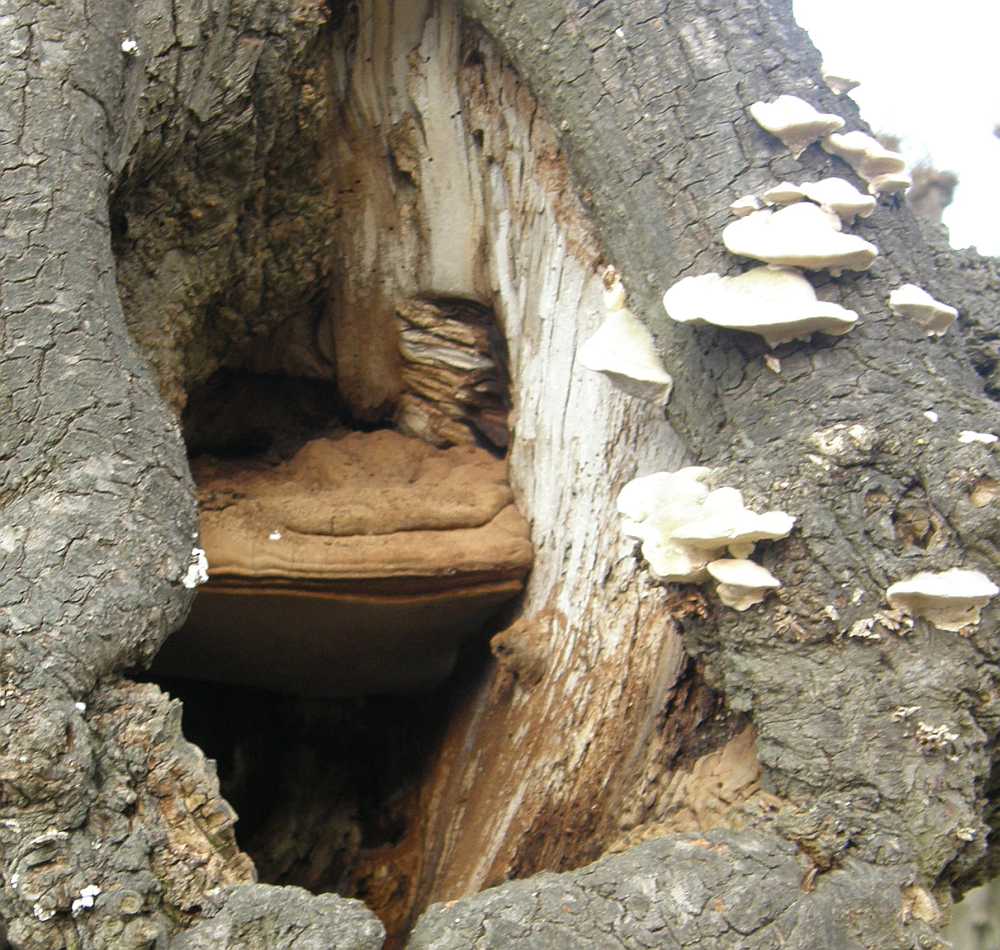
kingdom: Fungi
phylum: Basidiomycota
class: Agaricomycetes
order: Polyporales
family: Polyporaceae
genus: Ganoderma
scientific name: Ganoderma adspersum
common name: grov lakporesvamp
